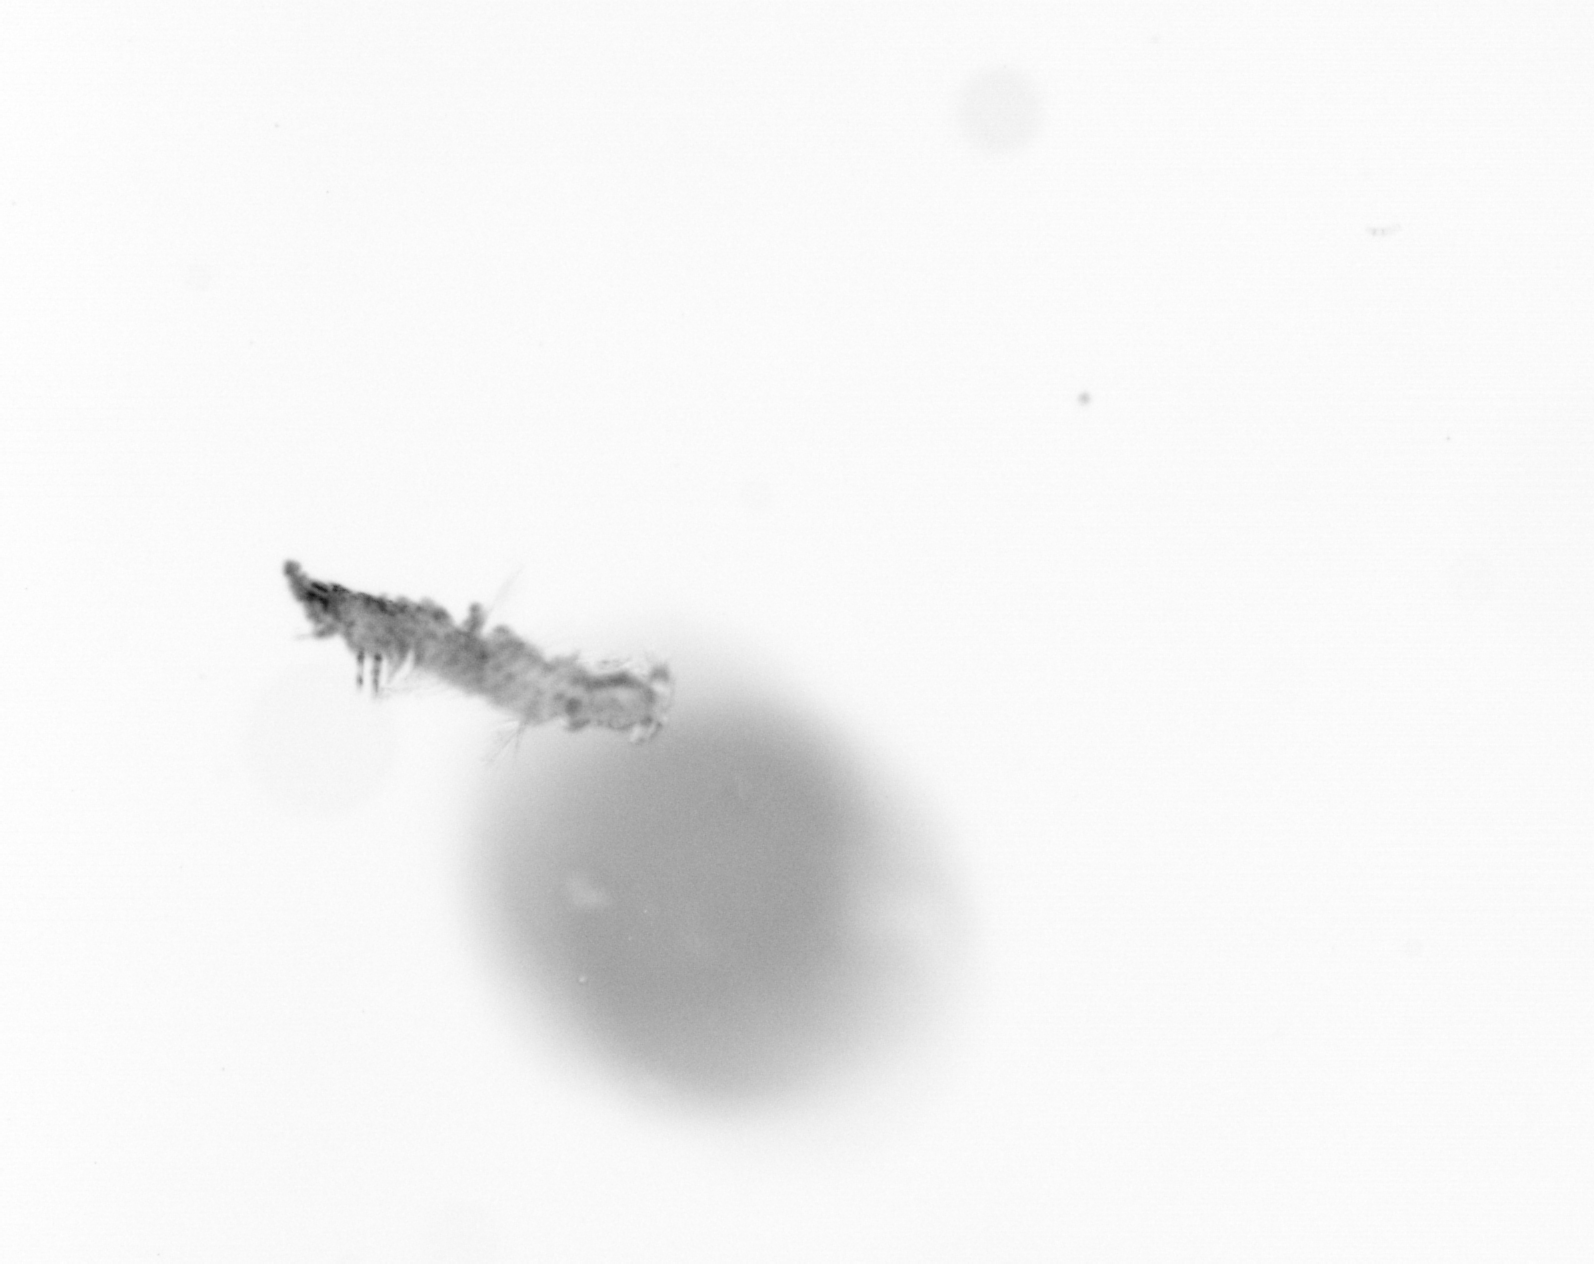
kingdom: Animalia
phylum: Annelida
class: Polychaeta
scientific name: Polychaeta
